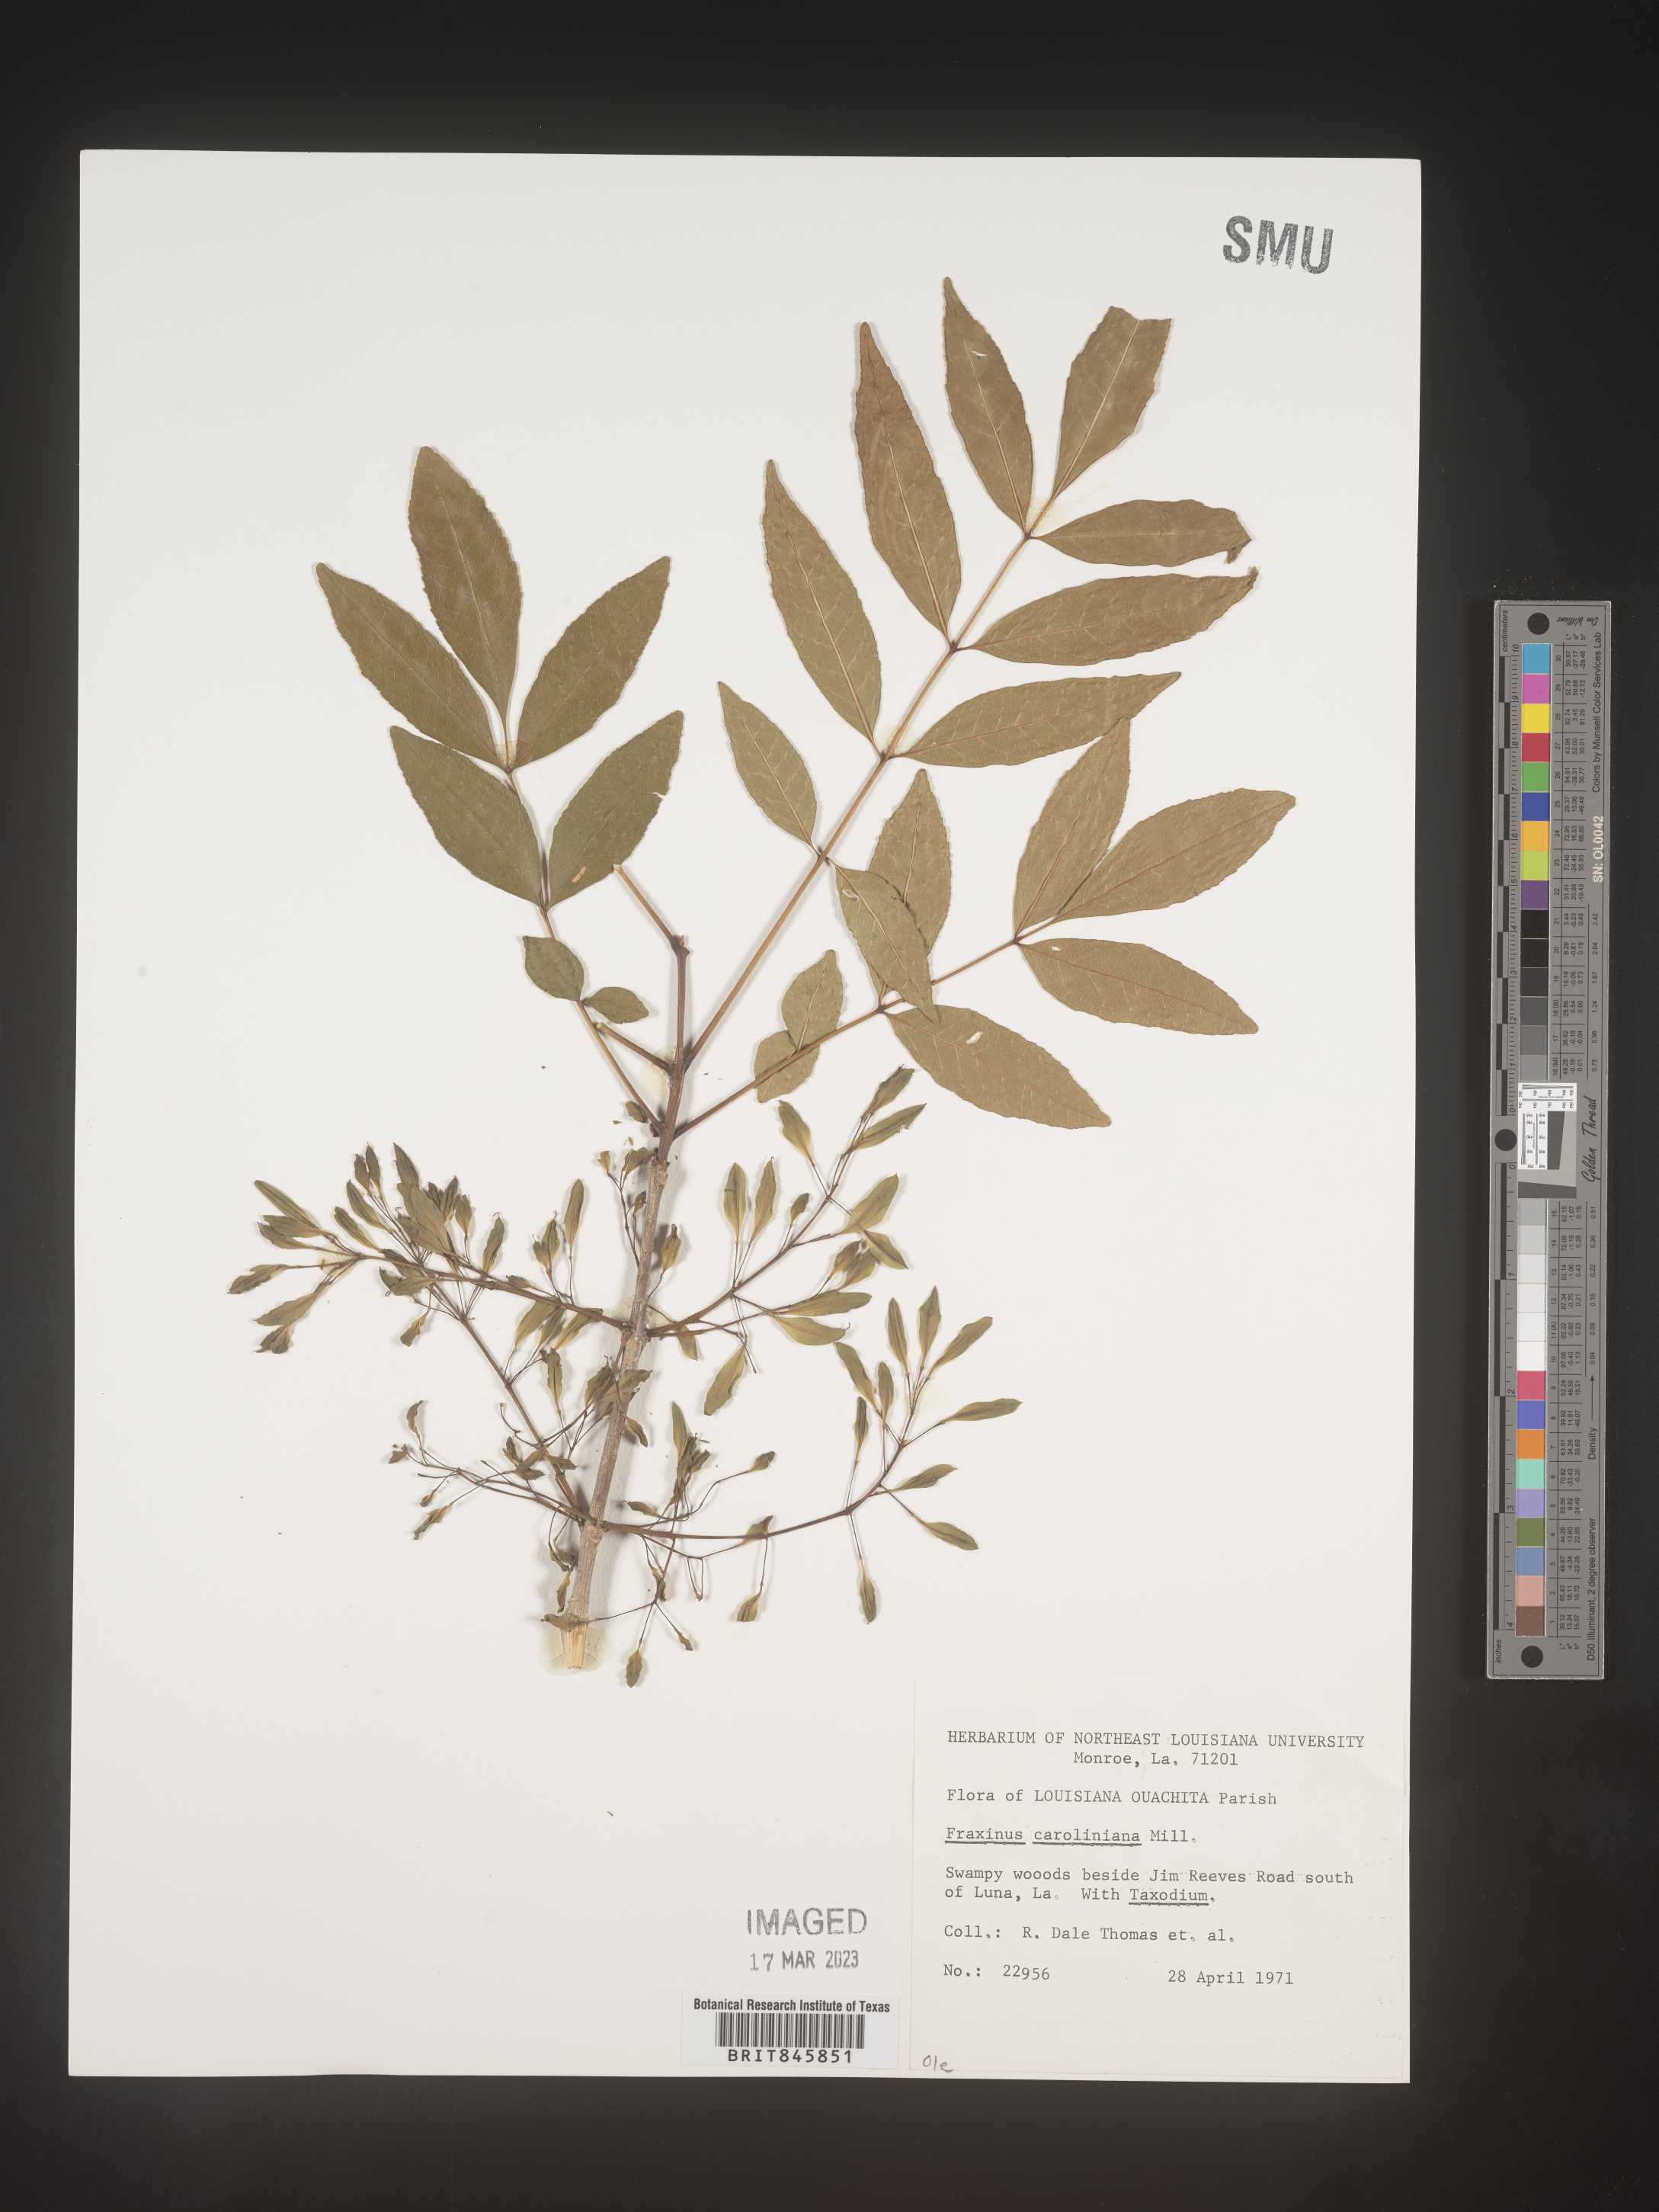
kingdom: Plantae
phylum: Tracheophyta
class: Magnoliopsida
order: Lamiales
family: Oleaceae
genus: Fraxinus
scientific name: Fraxinus caroliniana
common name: Carolina ash
